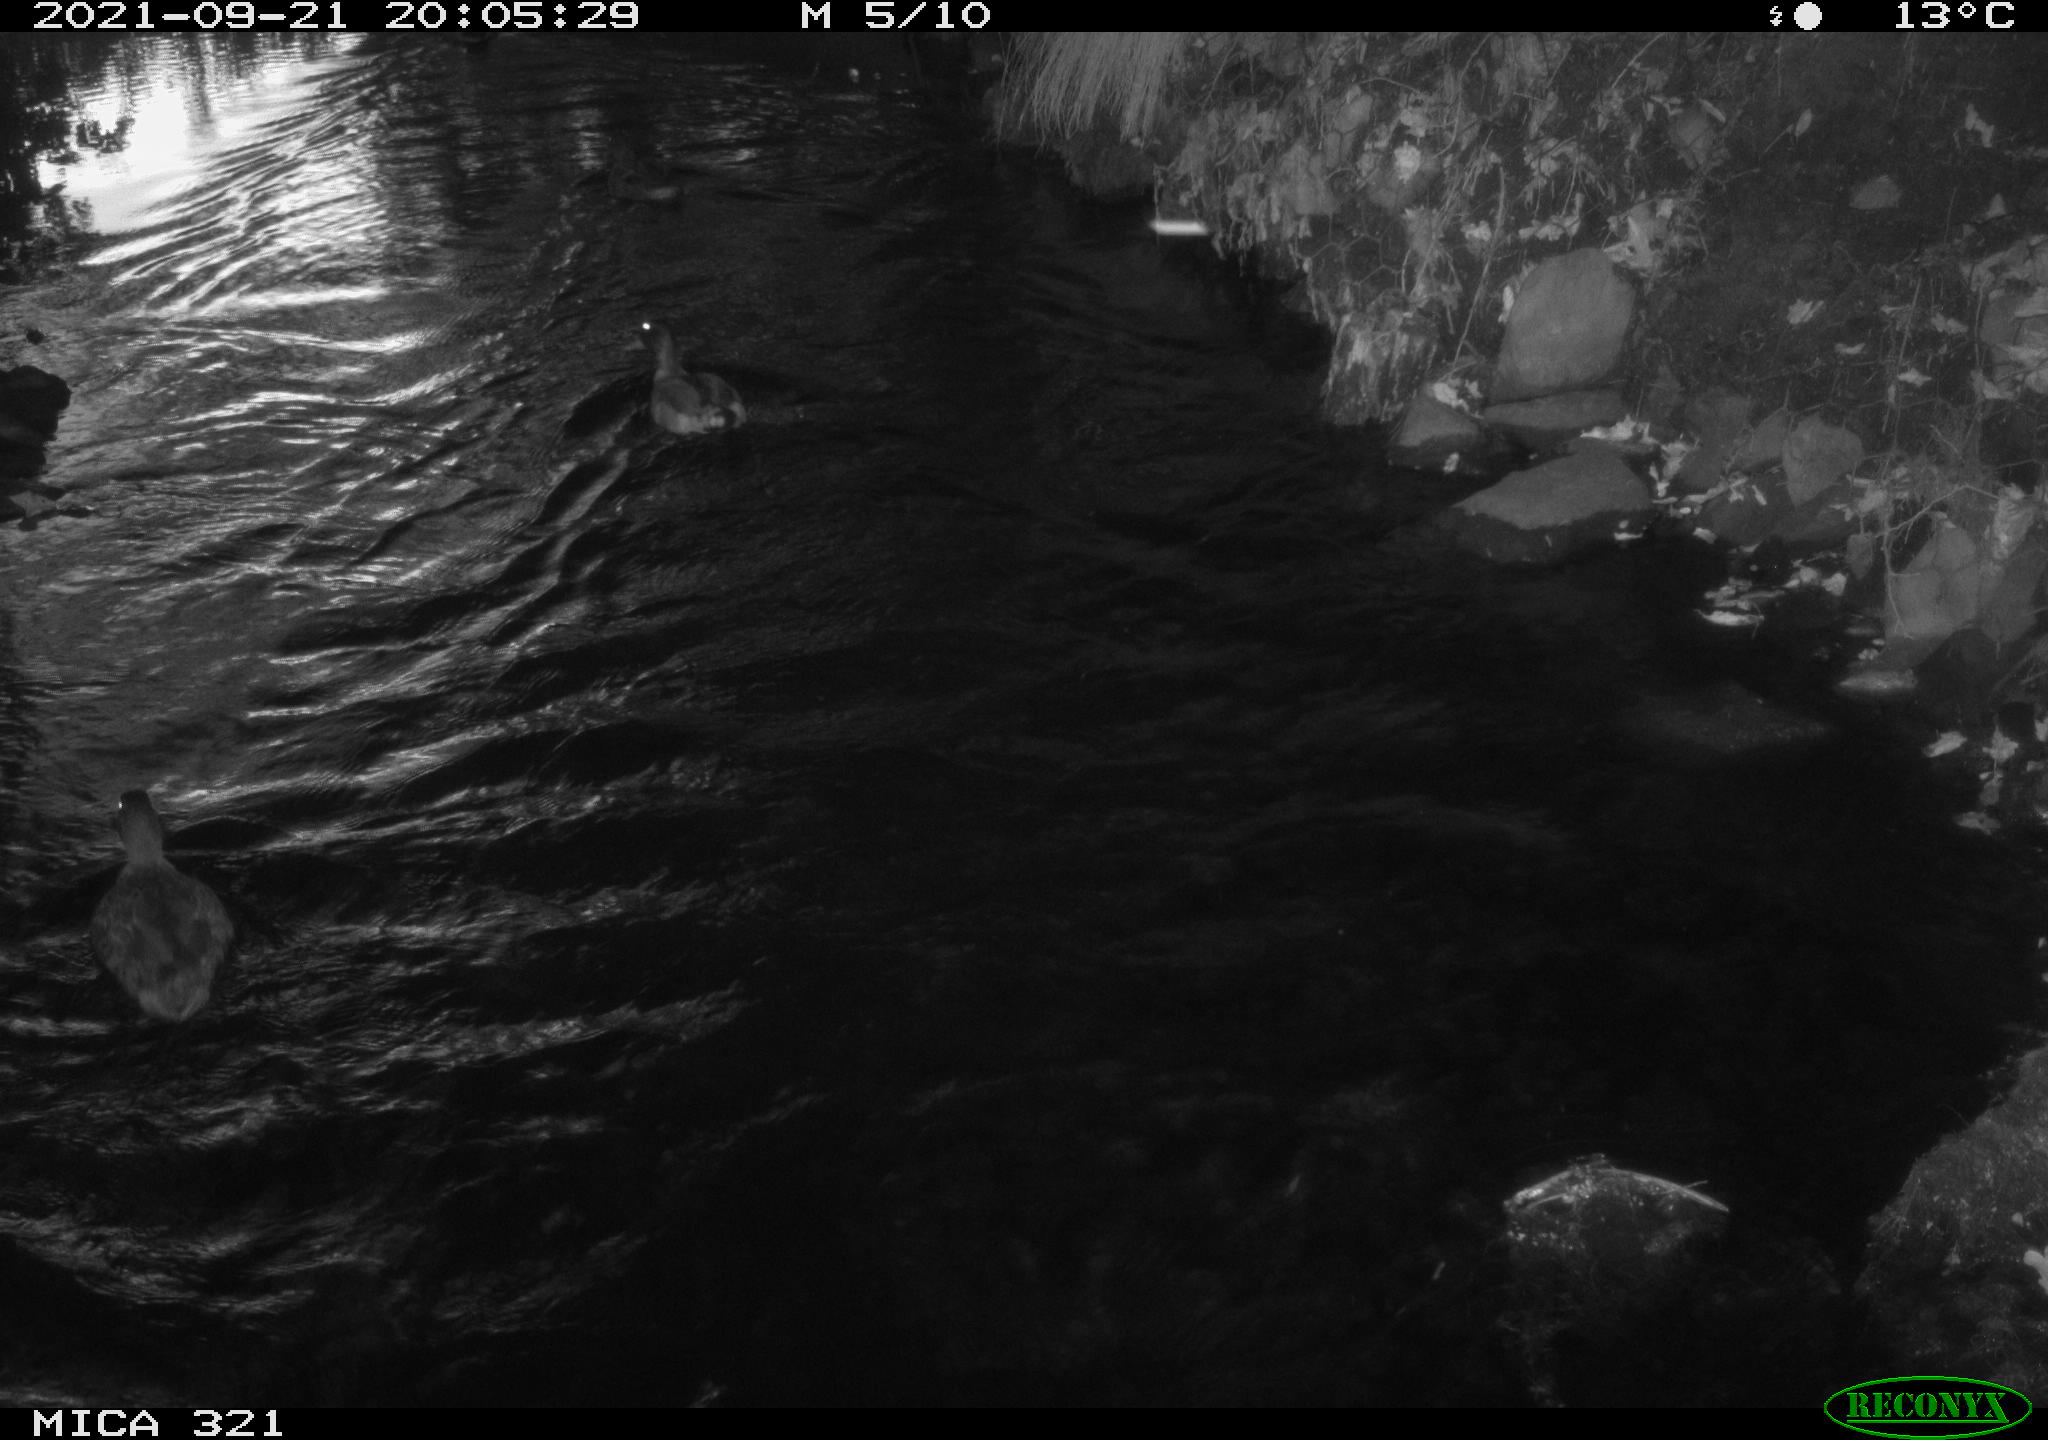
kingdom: Animalia
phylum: Chordata
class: Aves
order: Anseriformes
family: Anatidae
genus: Anas
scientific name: Anas platyrhynchos
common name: Mallard
